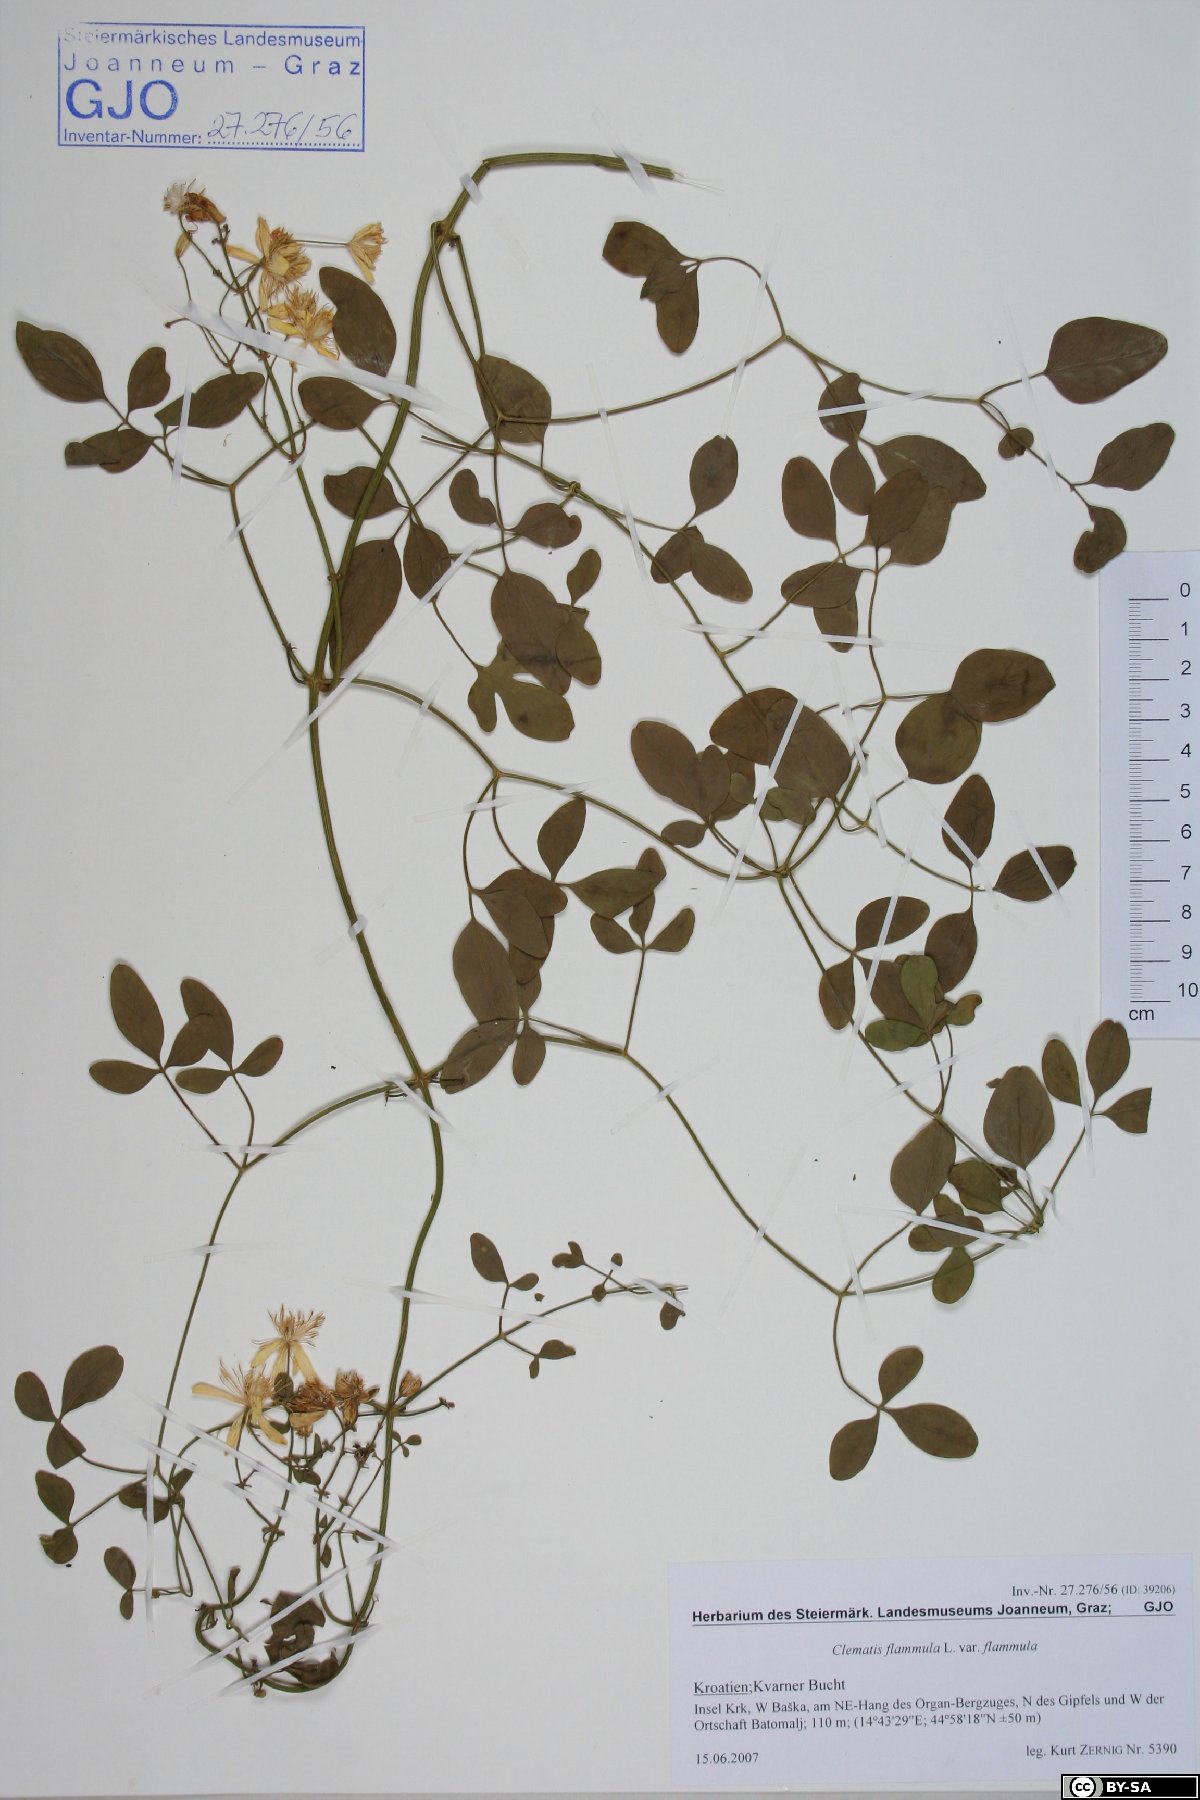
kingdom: Plantae
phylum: Tracheophyta
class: Magnoliopsida
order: Ranunculales
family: Ranunculaceae
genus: Clematis
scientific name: Clematis flammula
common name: Virgin's-bower
